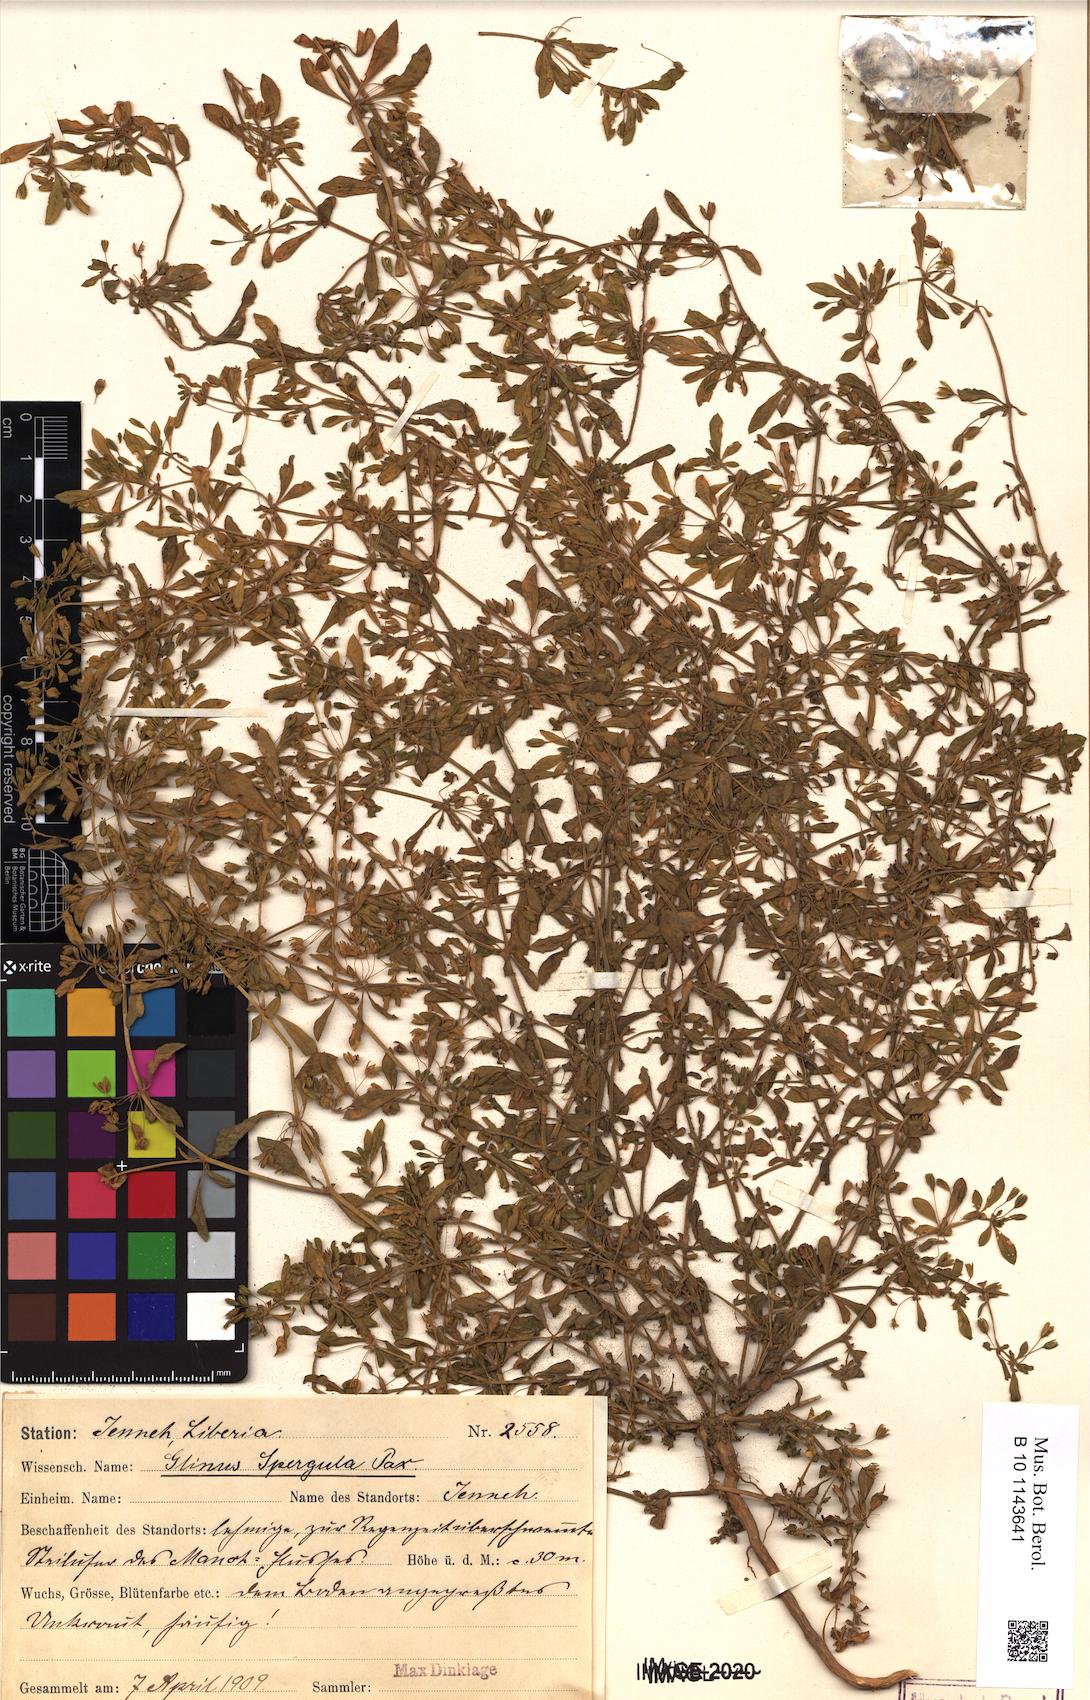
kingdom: Plantae
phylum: Tracheophyta
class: Magnoliopsida
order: Caryophyllales
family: Molluginaceae
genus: Glinus
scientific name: Glinus oppositifolius
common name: Slender carpetweed
